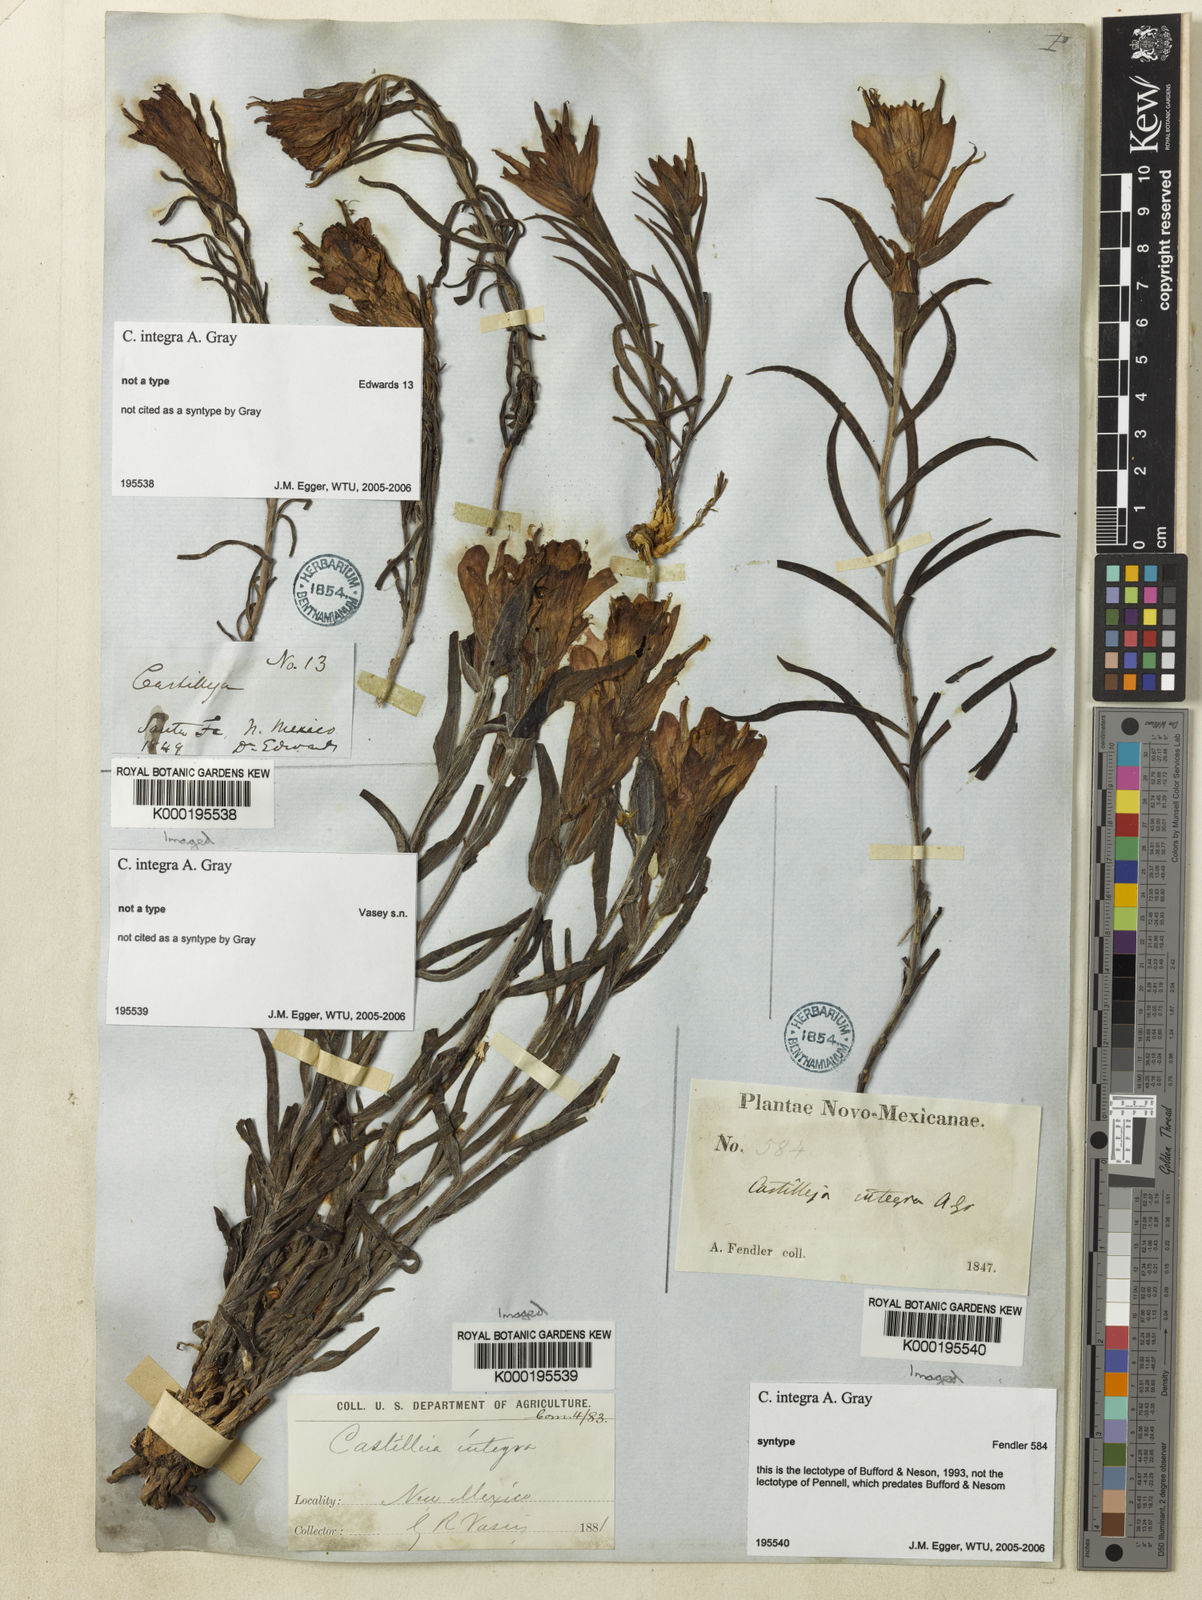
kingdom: Plantae
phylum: Tracheophyta
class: Magnoliopsida
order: Lamiales
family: Orobanchaceae
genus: Castilleja
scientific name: Castilleja integra
